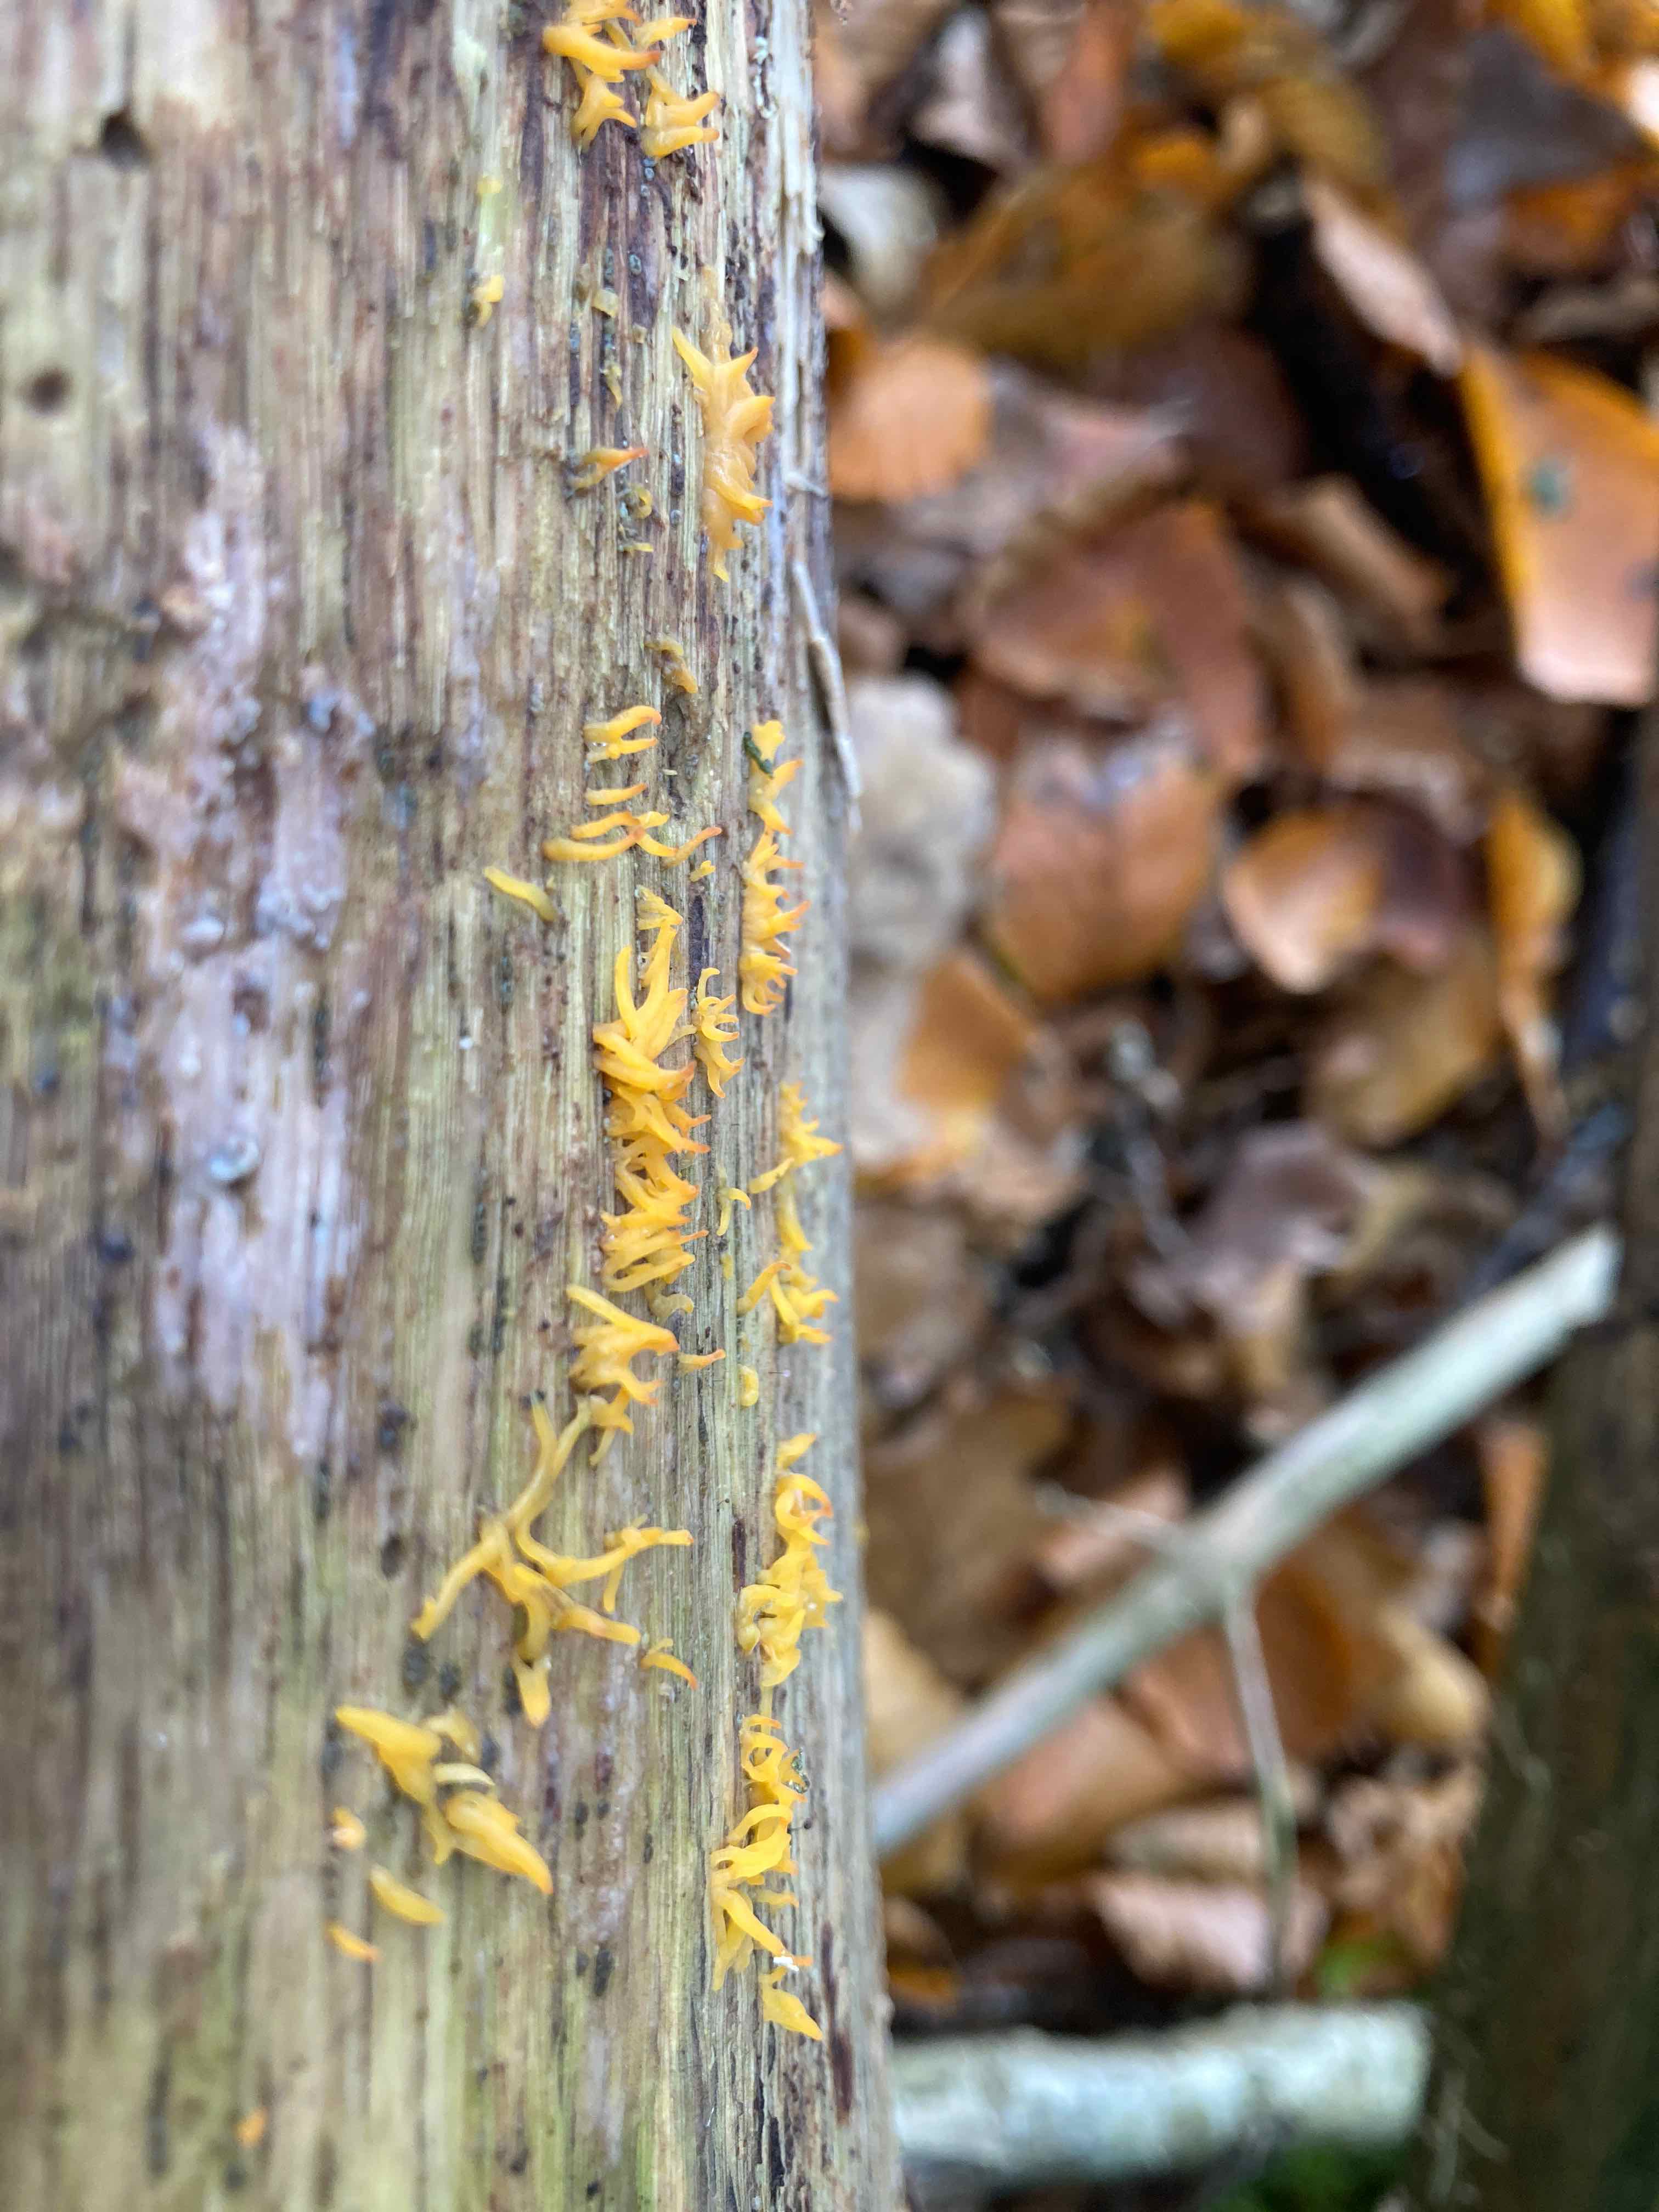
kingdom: Fungi
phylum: Basidiomycota
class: Dacrymycetes
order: Dacrymycetales
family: Dacrymycetaceae
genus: Calocera
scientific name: Calocera cornea
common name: liden guldgaffel
